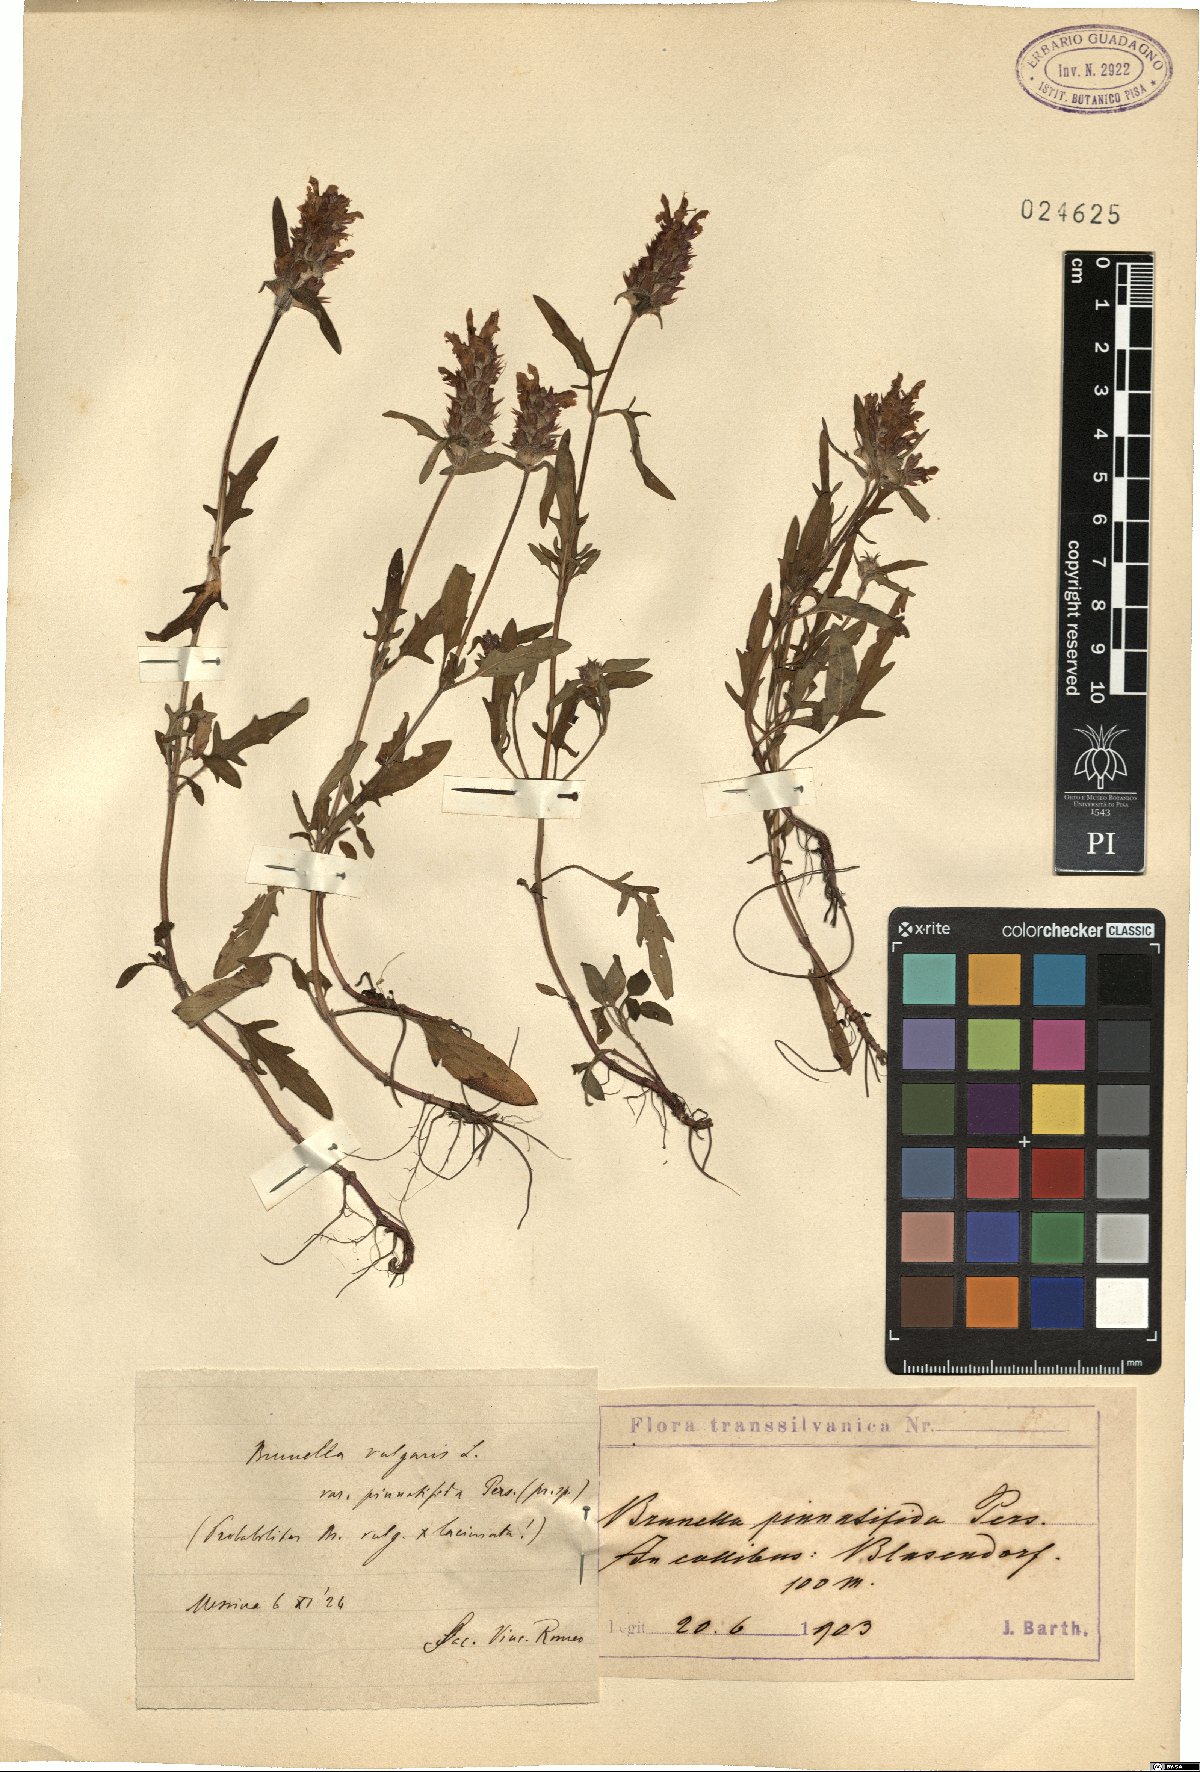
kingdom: Plantae
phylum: Tracheophyta
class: Magnoliopsida
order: Lamiales
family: Lamiaceae
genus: Prunella
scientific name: Prunella intermedia
